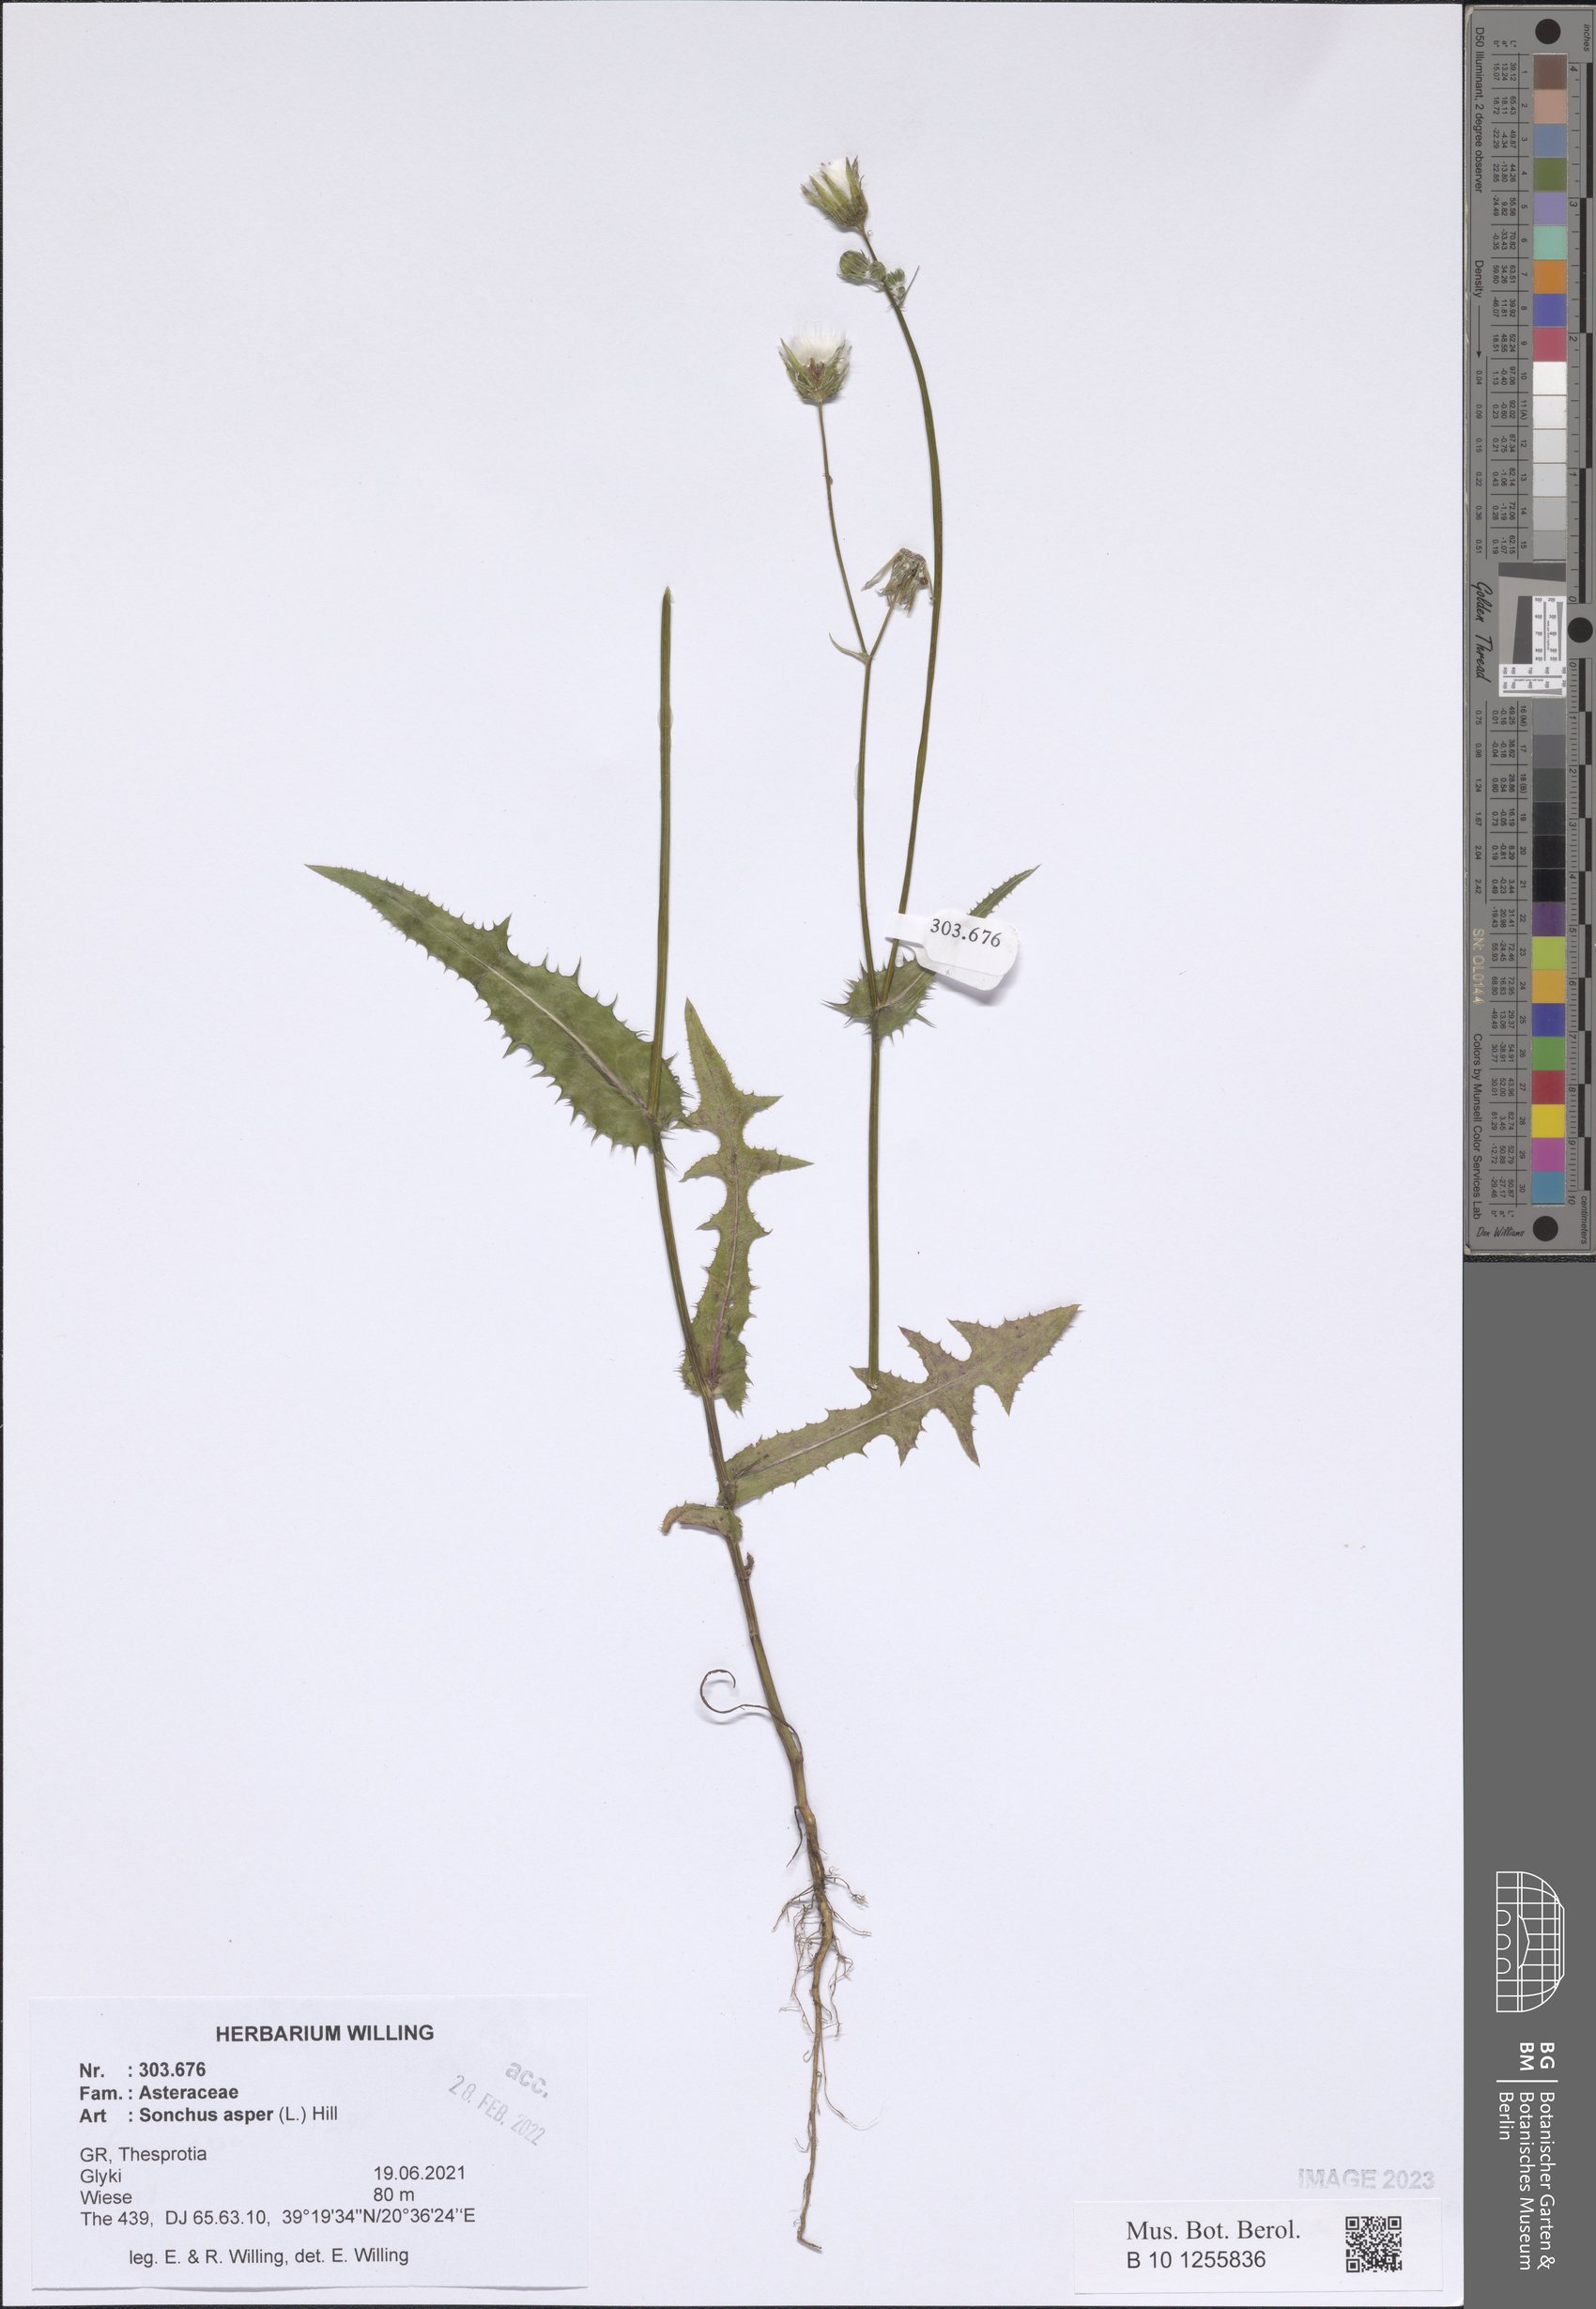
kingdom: Plantae
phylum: Tracheophyta
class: Magnoliopsida
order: Asterales
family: Asteraceae
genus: Sonchus
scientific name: Sonchus asper
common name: Prickly sow-thistle
